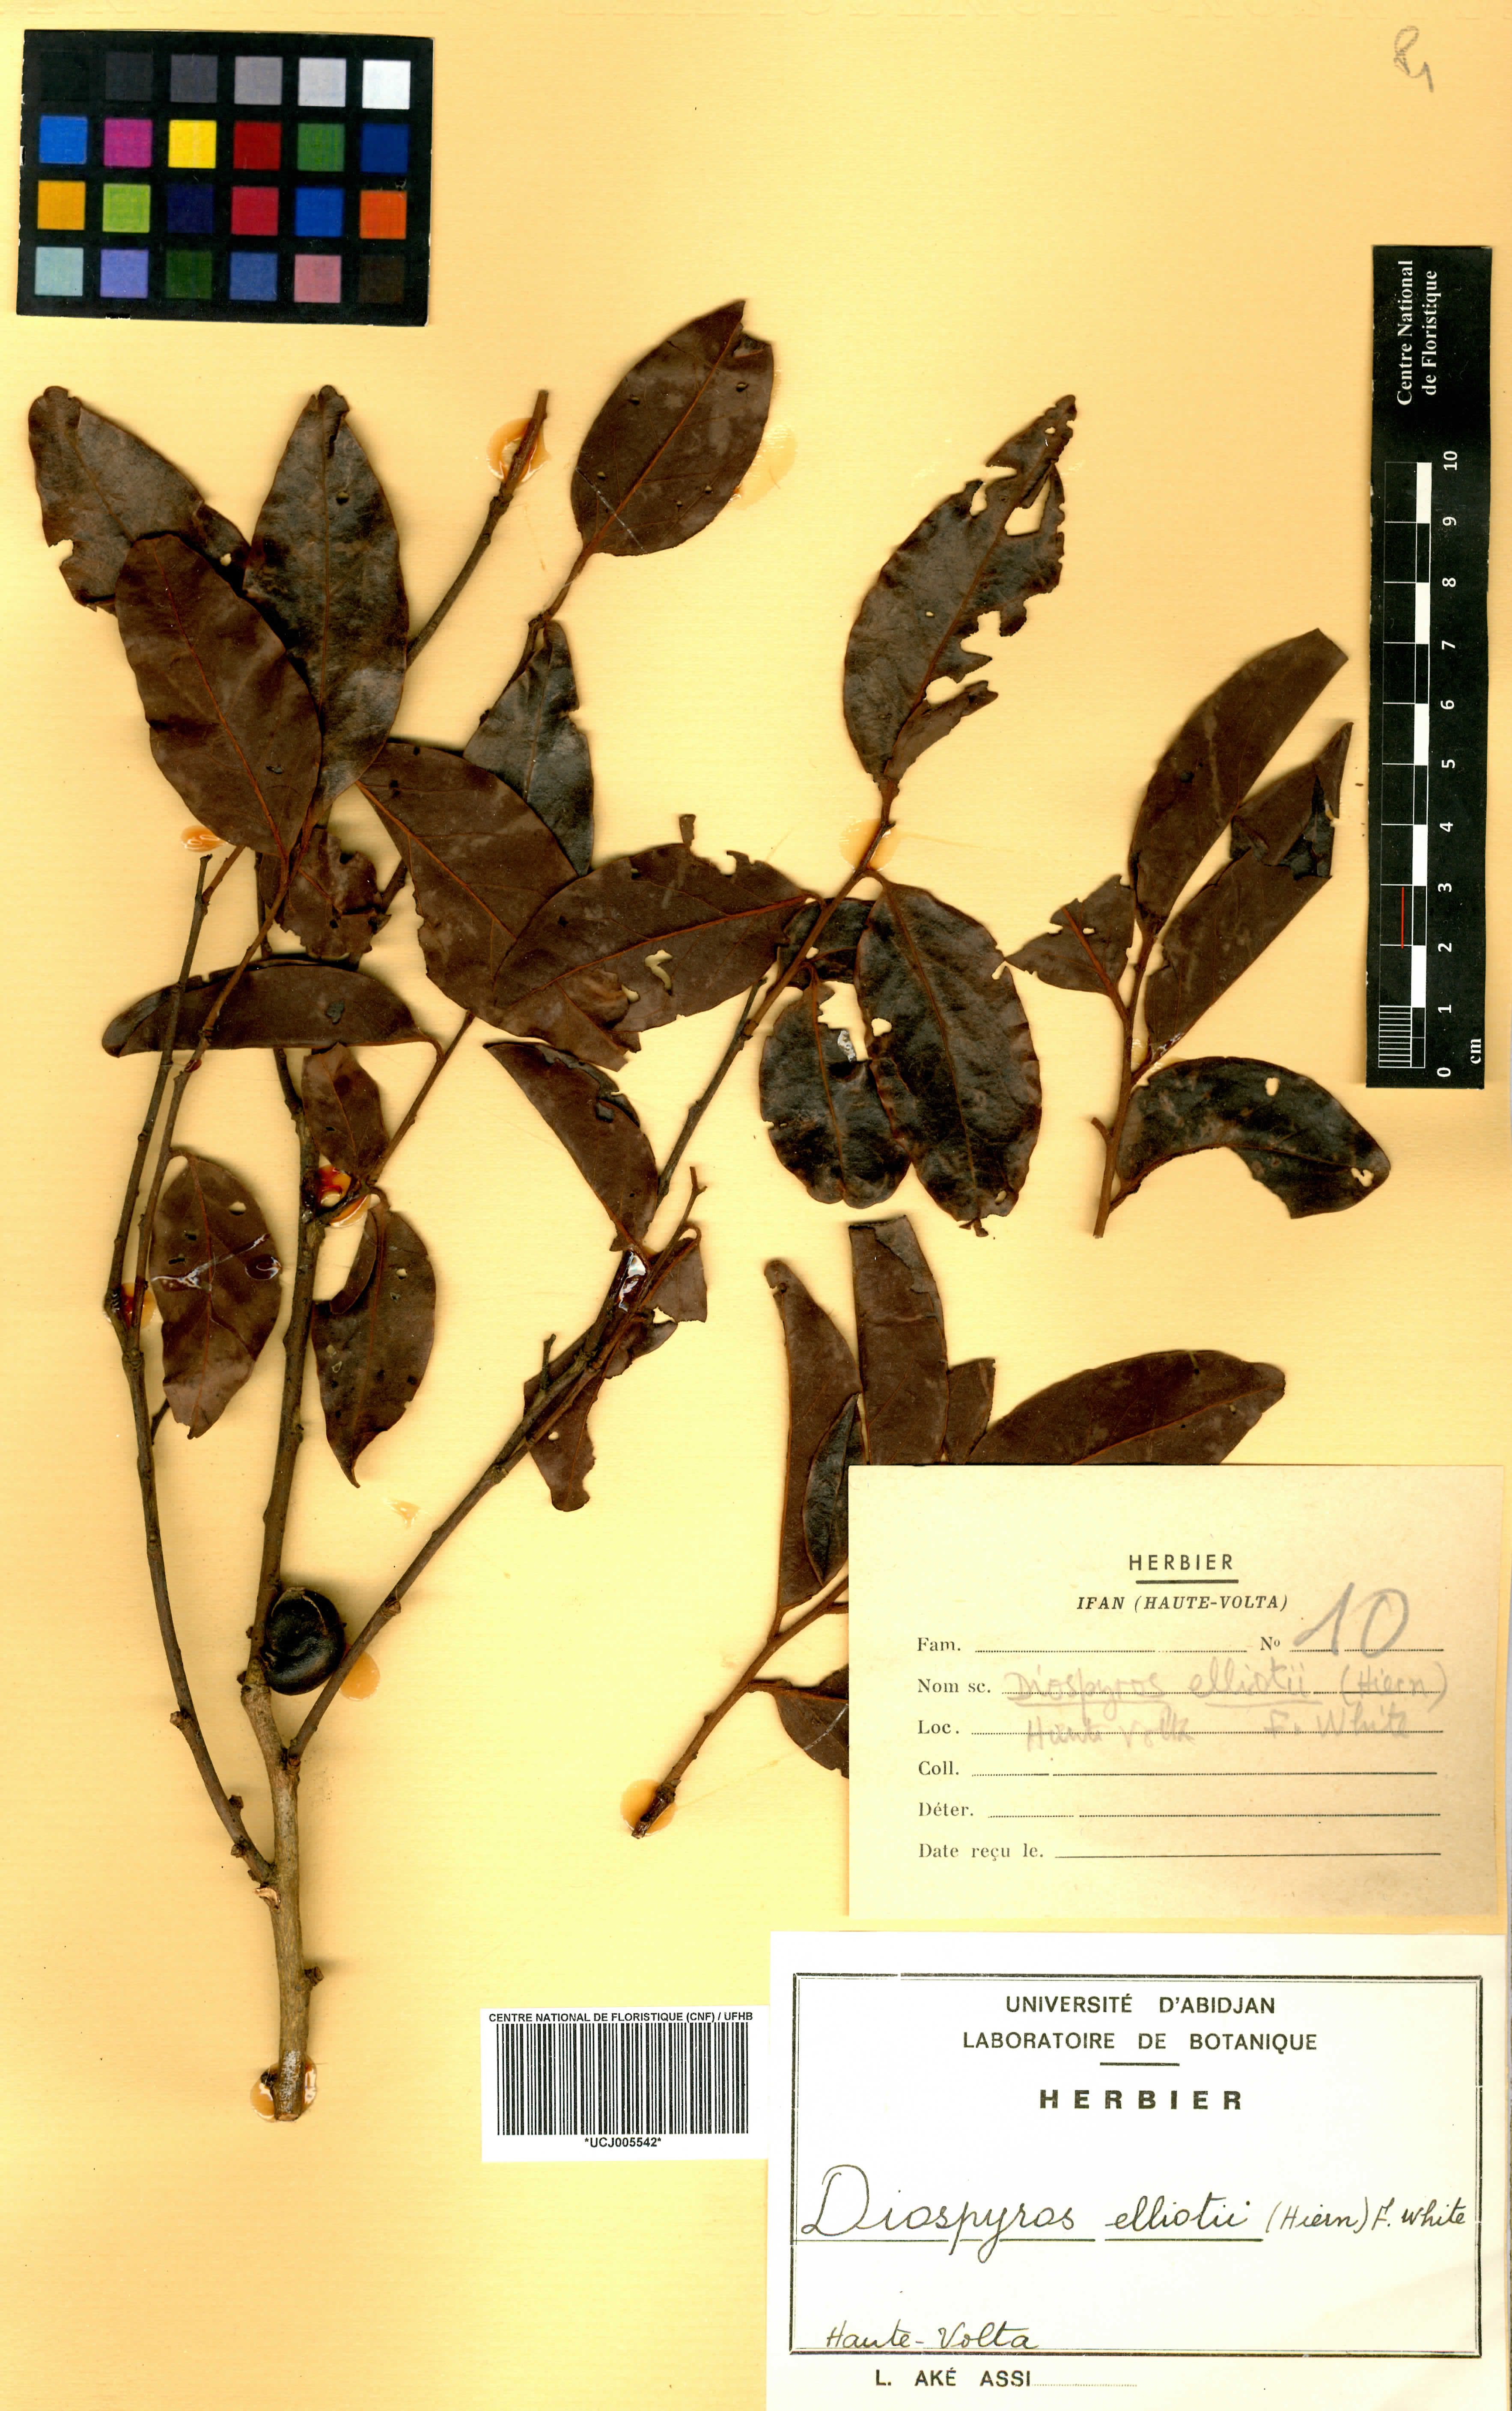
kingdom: Plantae
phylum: Tracheophyta
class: Magnoliopsida
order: Ericales
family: Ebenaceae
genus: Diospyros
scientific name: Diospyros elliotii
